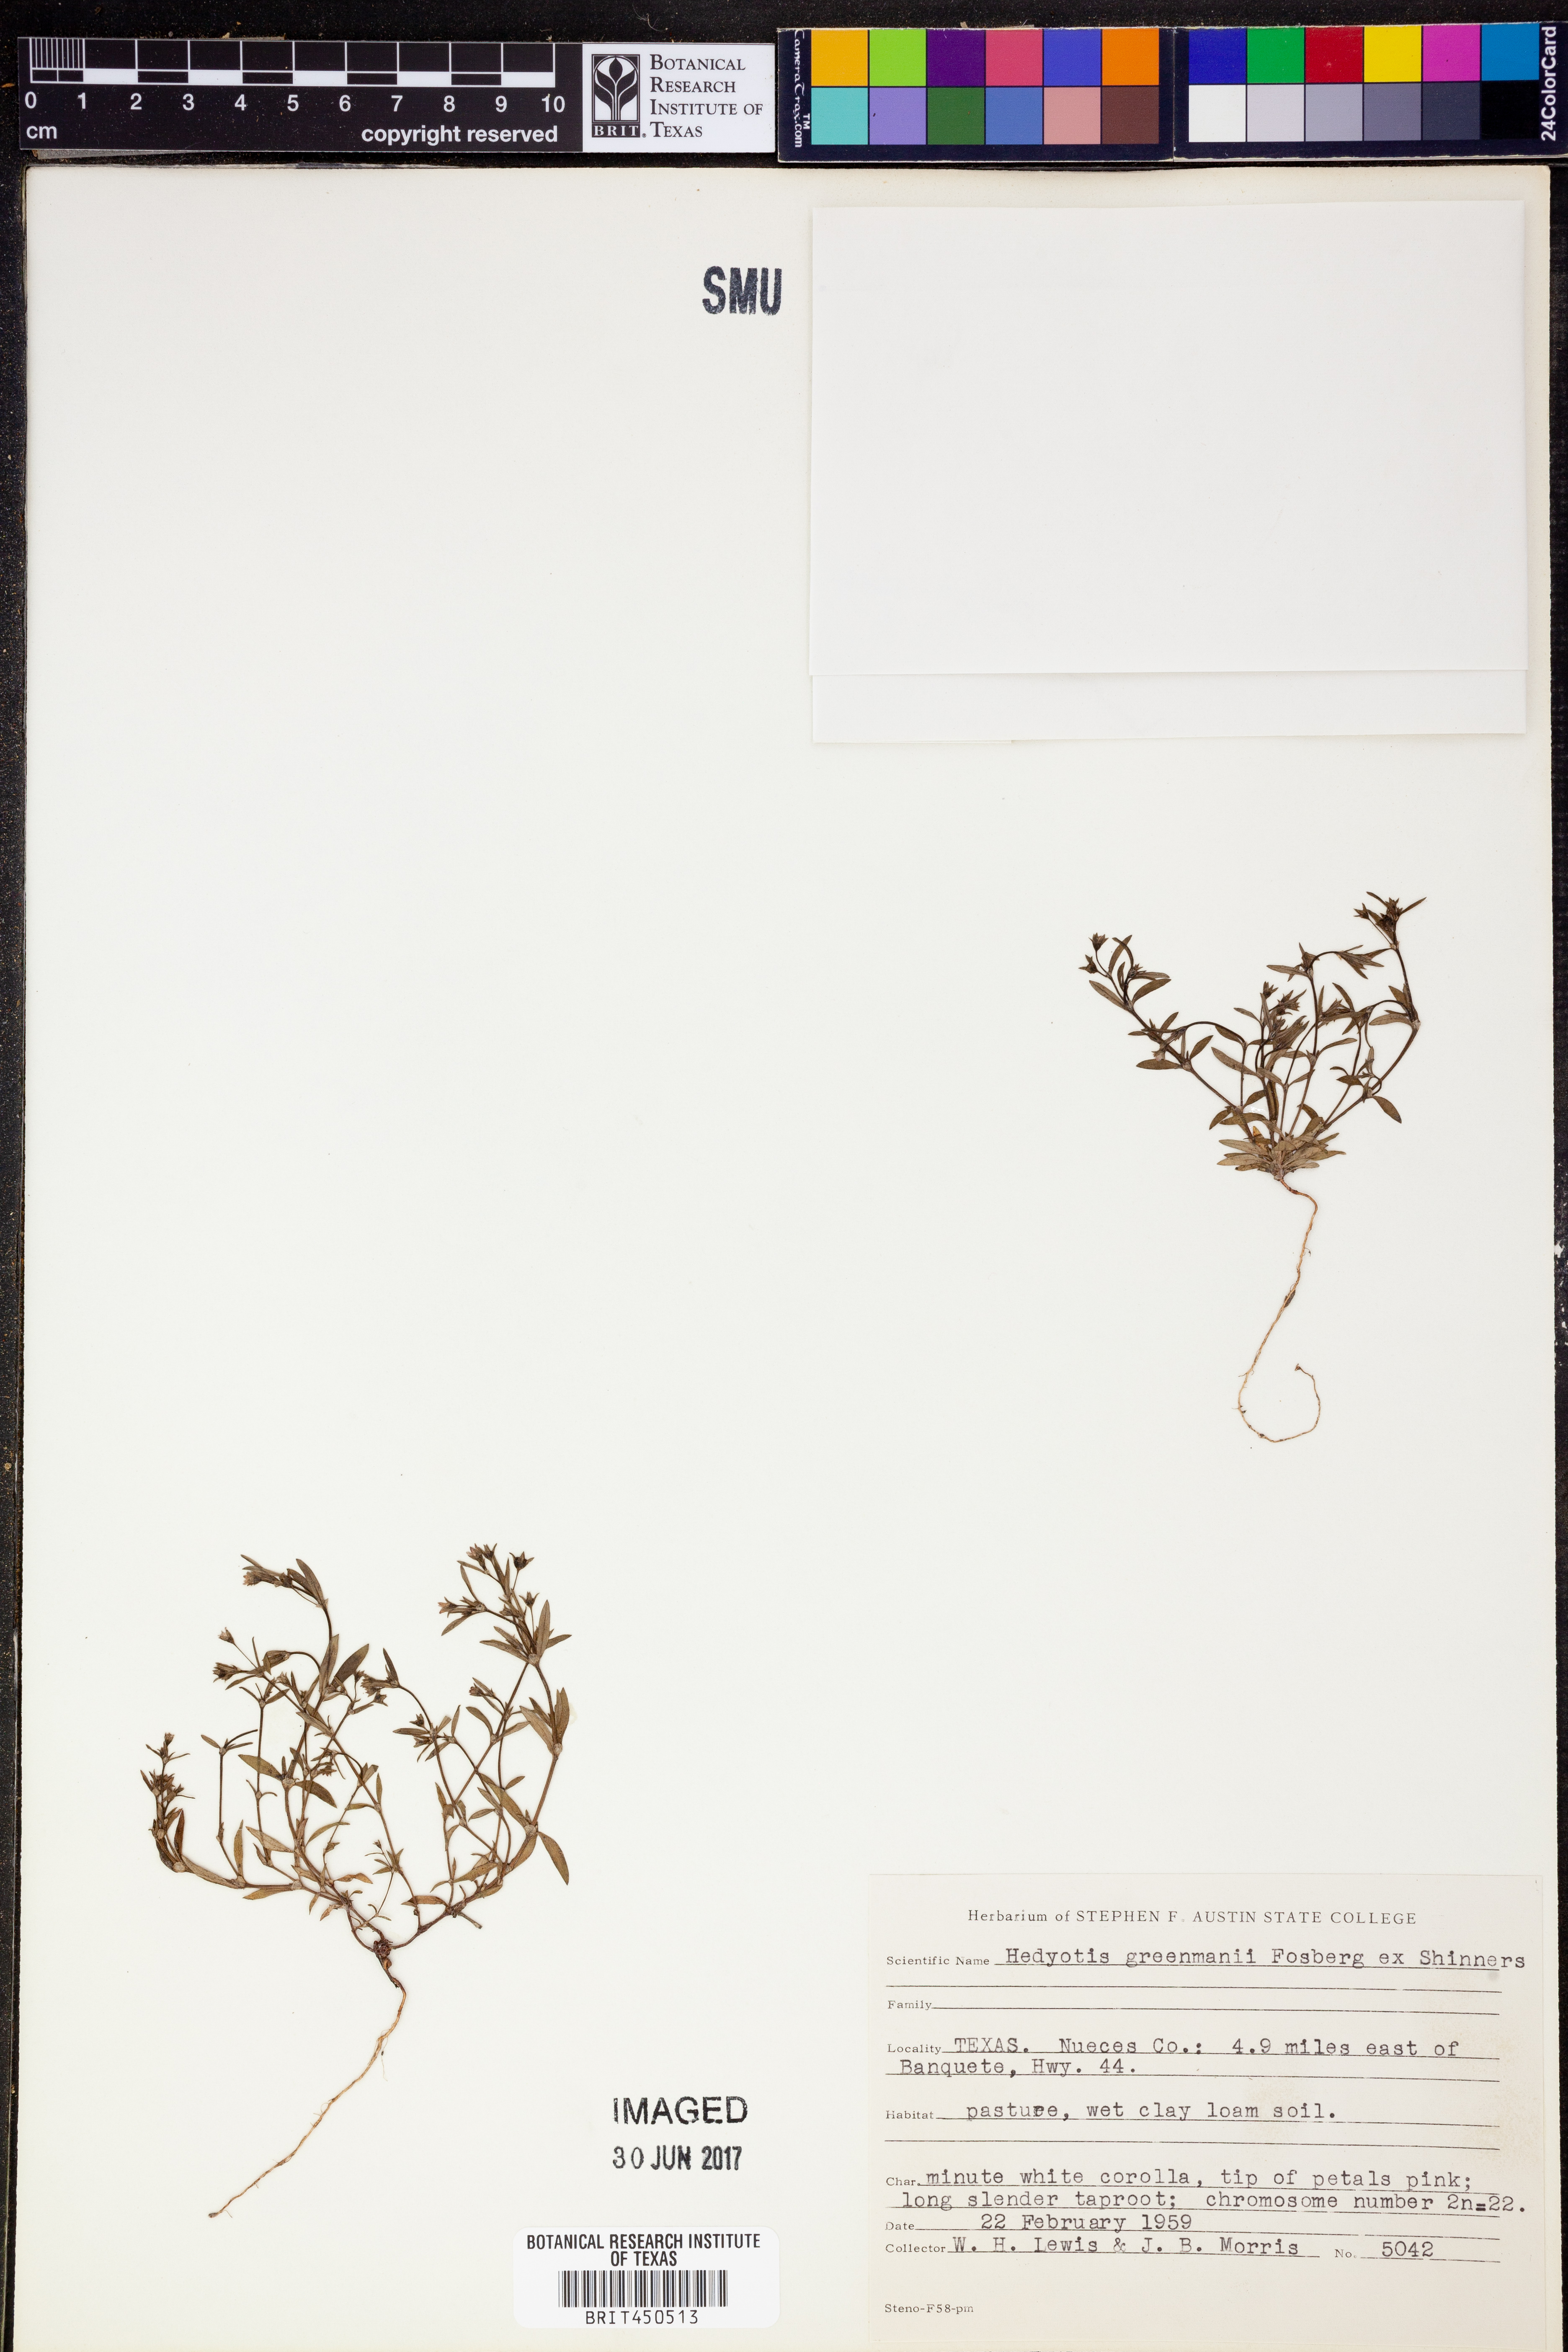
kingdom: Plantae
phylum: Tracheophyta
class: Magnoliopsida
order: Gentianales
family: Rubiaceae
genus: Houstonia
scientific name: Houstonia parviflora
